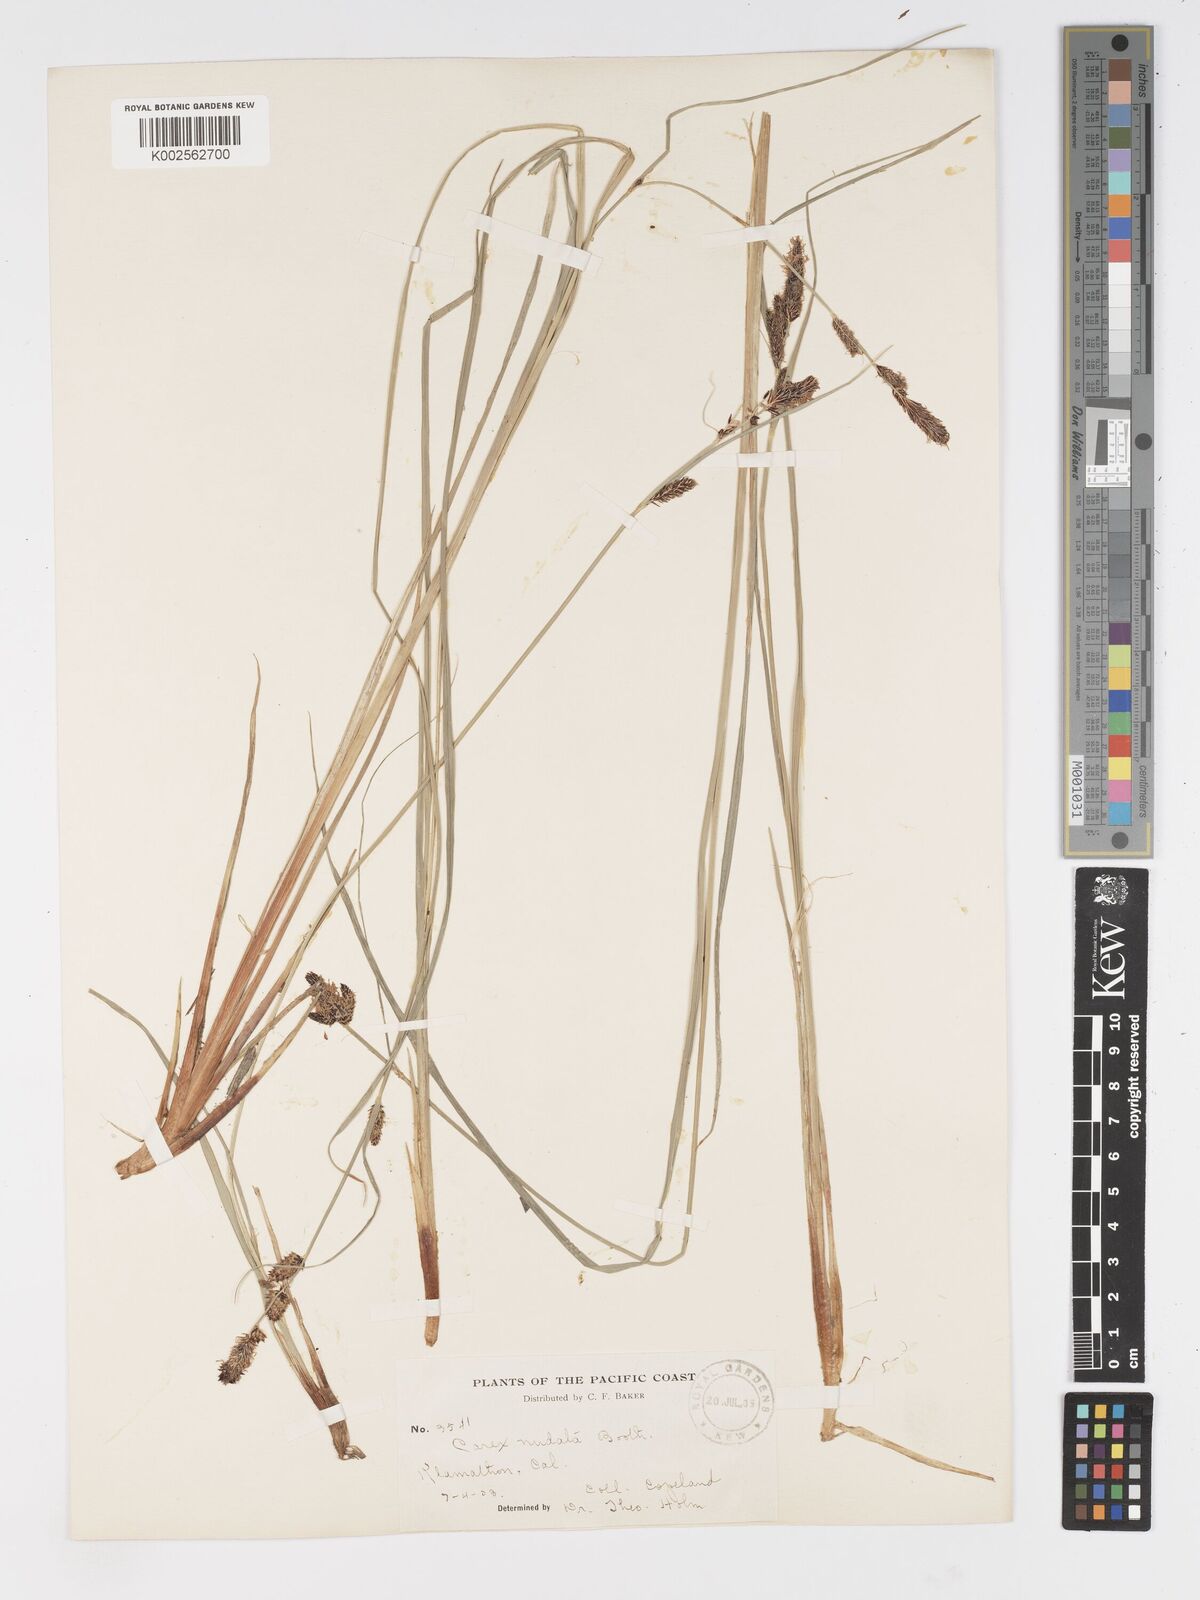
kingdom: Plantae
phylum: Tracheophyta
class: Liliopsida
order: Poales
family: Cyperaceae
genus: Carex
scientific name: Carex nudata
